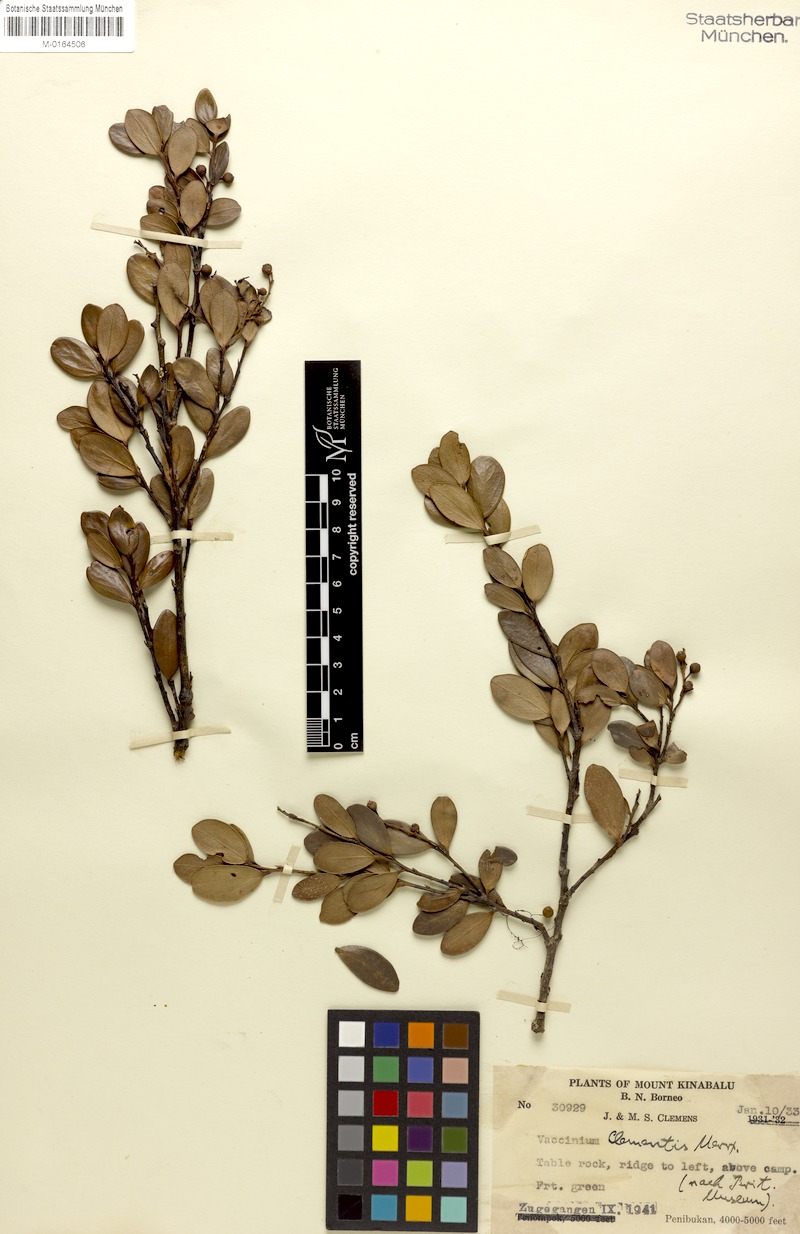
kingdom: Plantae
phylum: Tracheophyta
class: Magnoliopsida
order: Ericales
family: Ericaceae
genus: Vaccinium
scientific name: Vaccinium clementis
